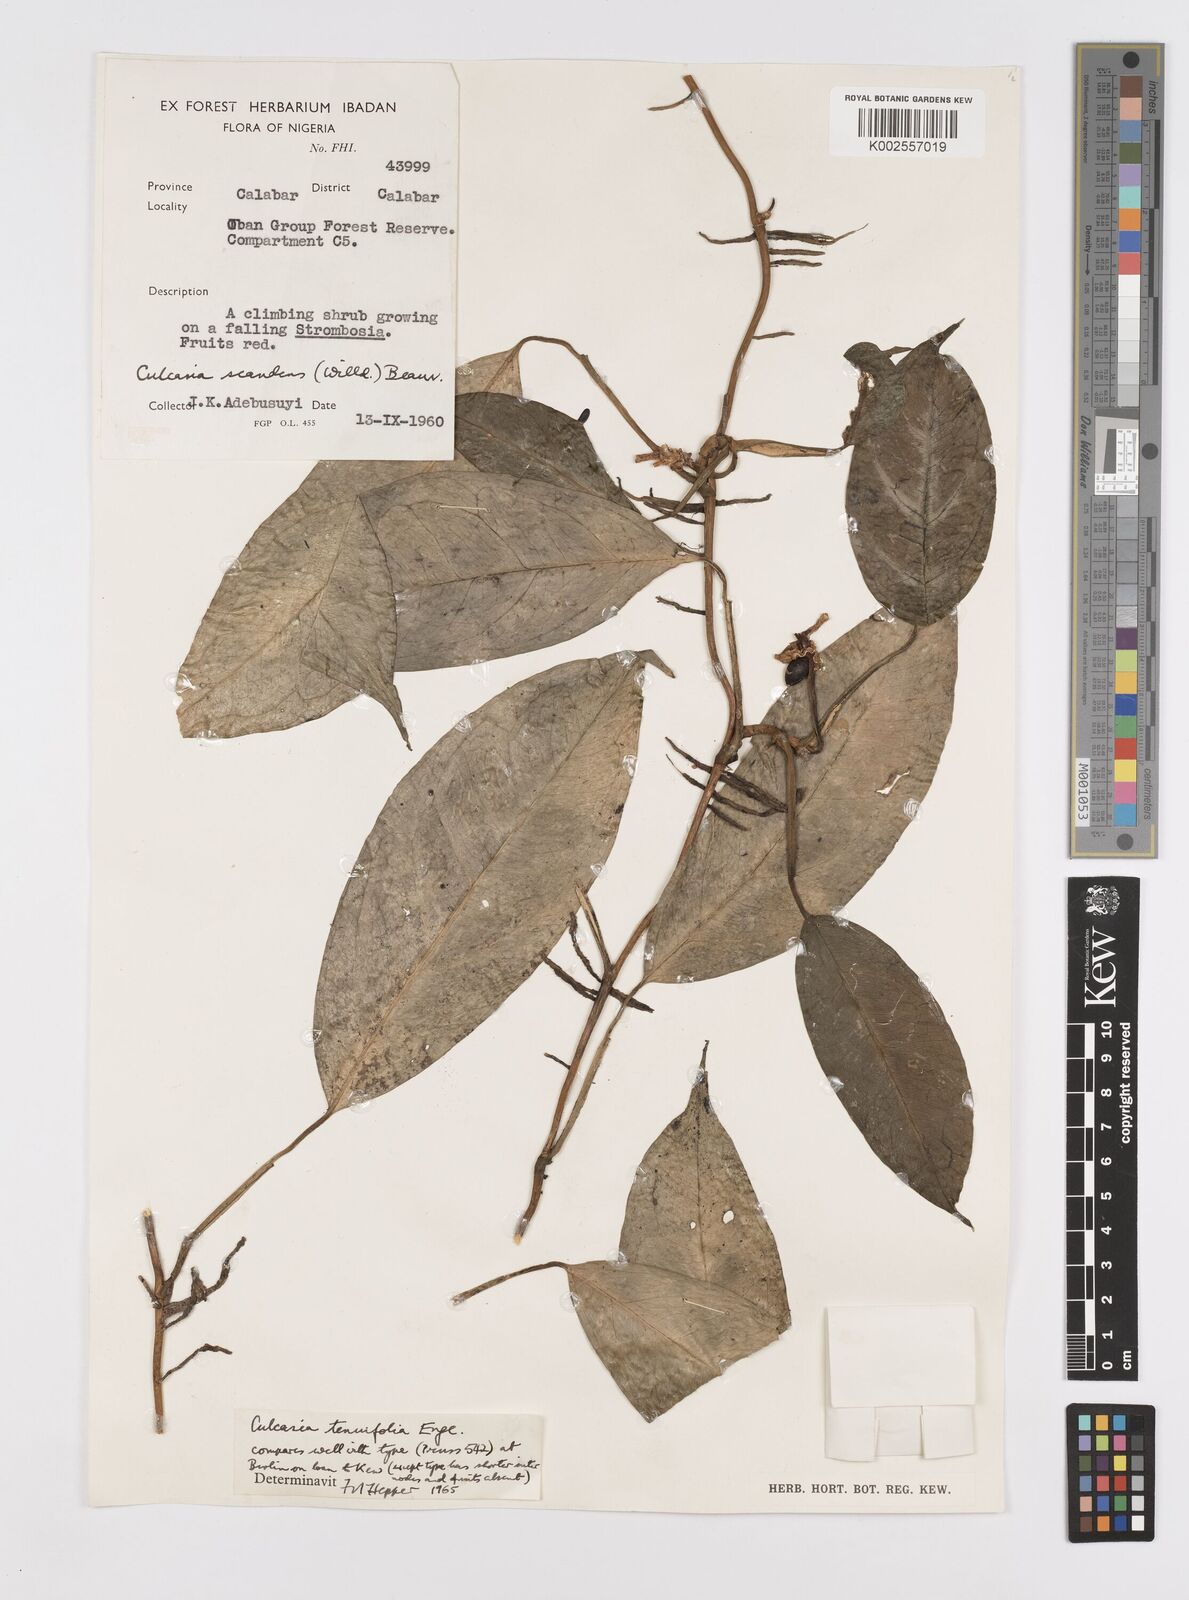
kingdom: Plantae
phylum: Tracheophyta
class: Liliopsida
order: Alismatales
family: Araceae
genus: Culcasia
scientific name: Culcasia tenuifolia
